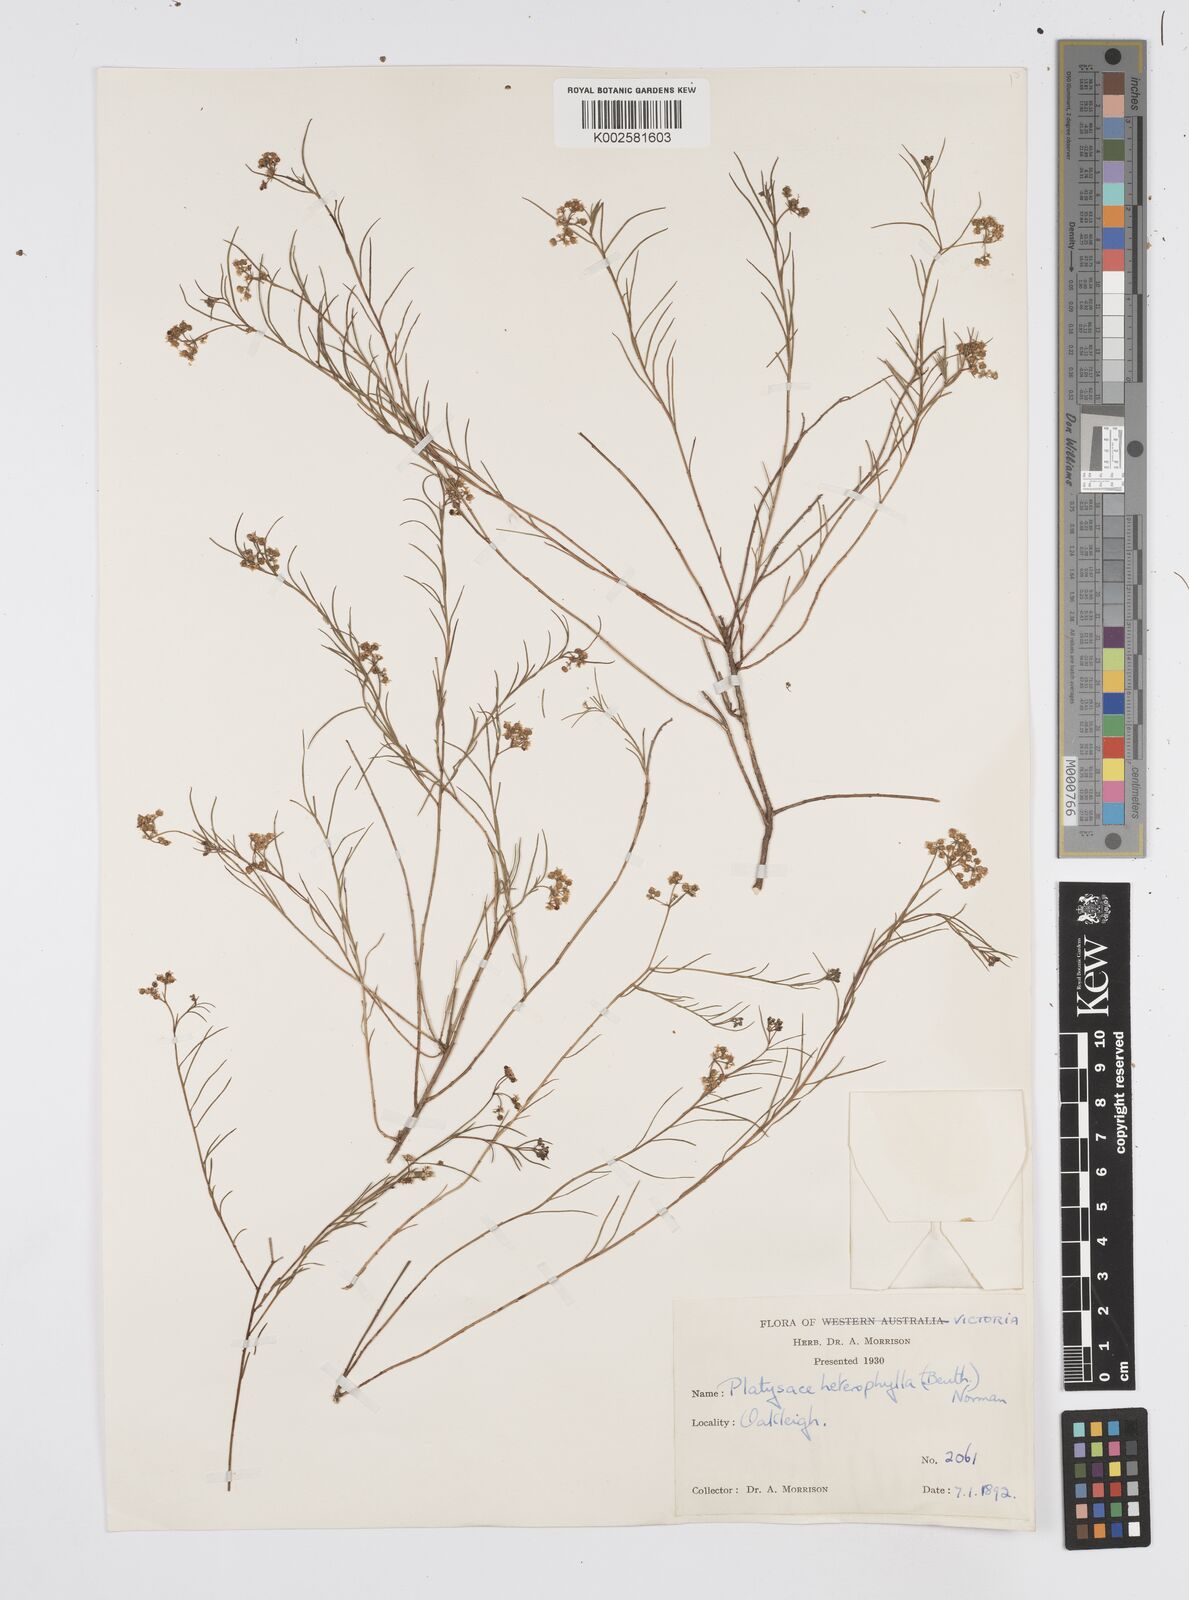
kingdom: Plantae
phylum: Tracheophyta
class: Magnoliopsida
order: Apiales
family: Apiaceae
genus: Platysace
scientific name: Platysace heterophylla
